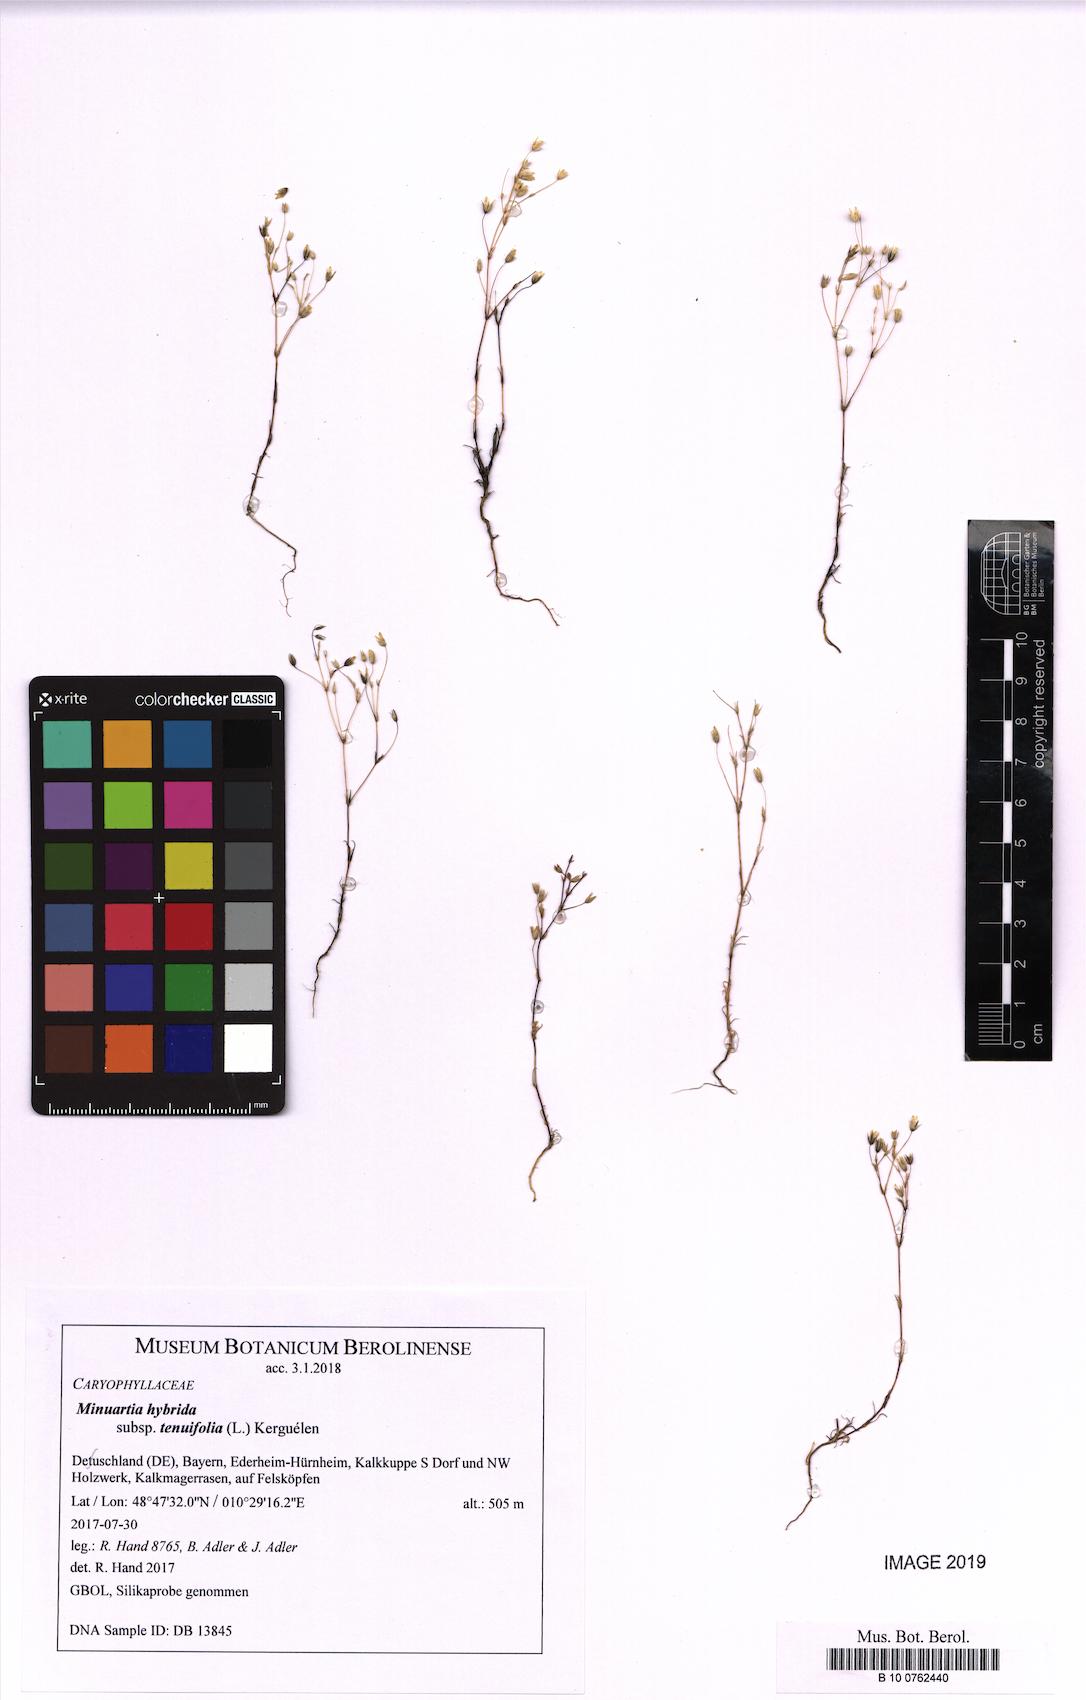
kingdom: Plantae
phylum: Tracheophyta
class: Magnoliopsida
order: Caryophyllales
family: Caryophyllaceae
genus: Sabulina
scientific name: Sabulina tenuifolia
